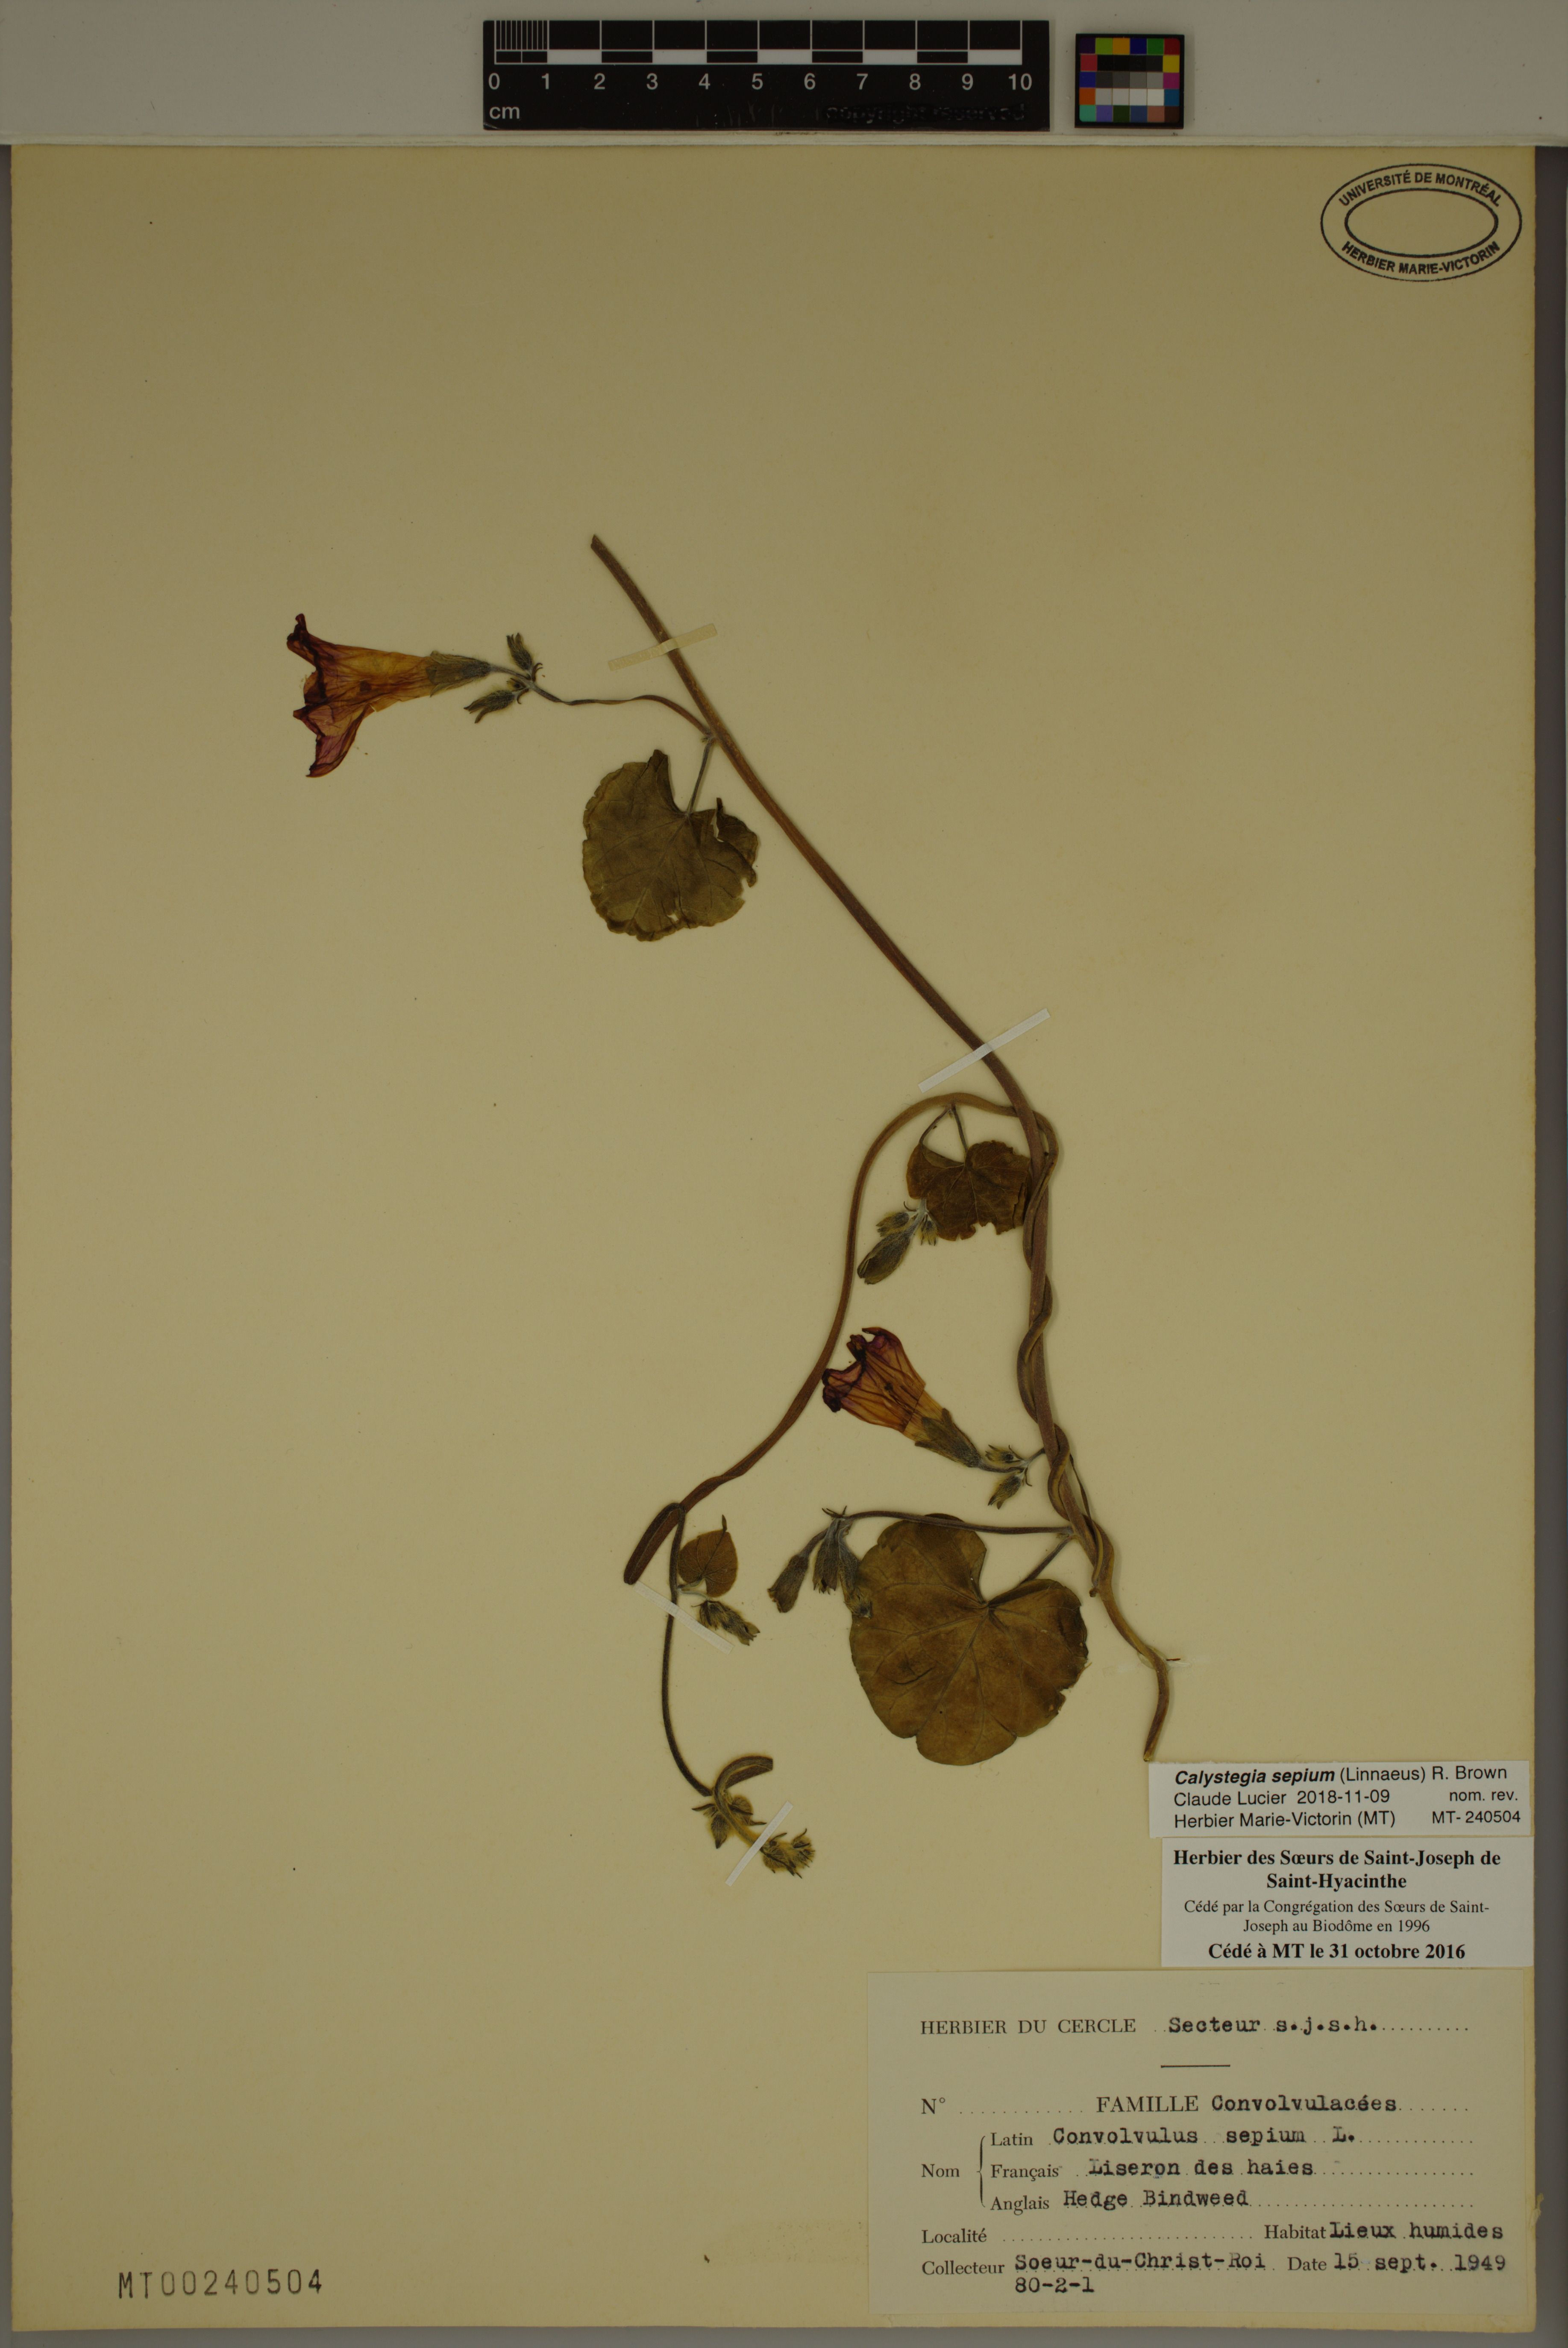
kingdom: Plantae
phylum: Tracheophyta
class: Magnoliopsida
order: Solanales
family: Convolvulaceae
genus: Calystegia
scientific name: Calystegia sepium
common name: Hedge bindweed
